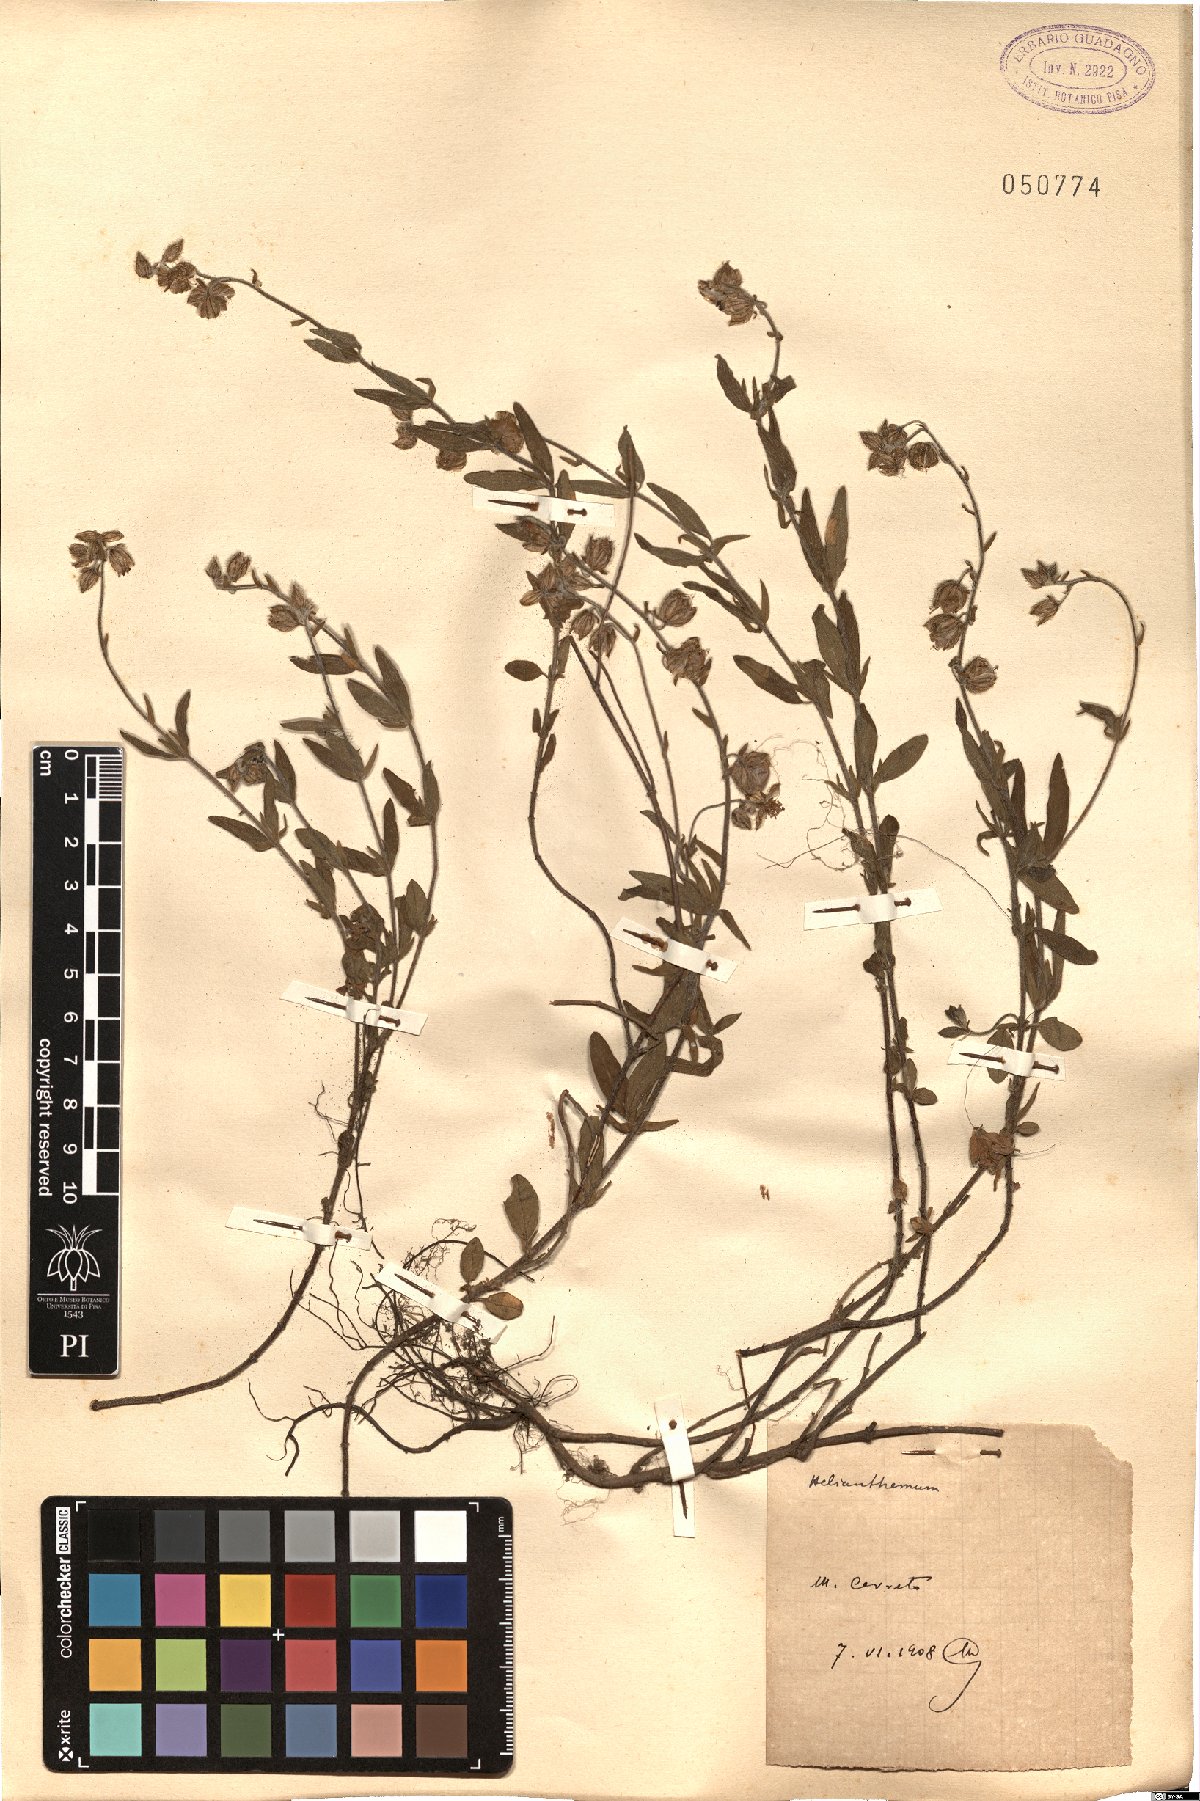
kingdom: Plantae
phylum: Tracheophyta
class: Magnoliopsida
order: Malvales
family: Cistaceae
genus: Helianthemum
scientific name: Helianthemum
